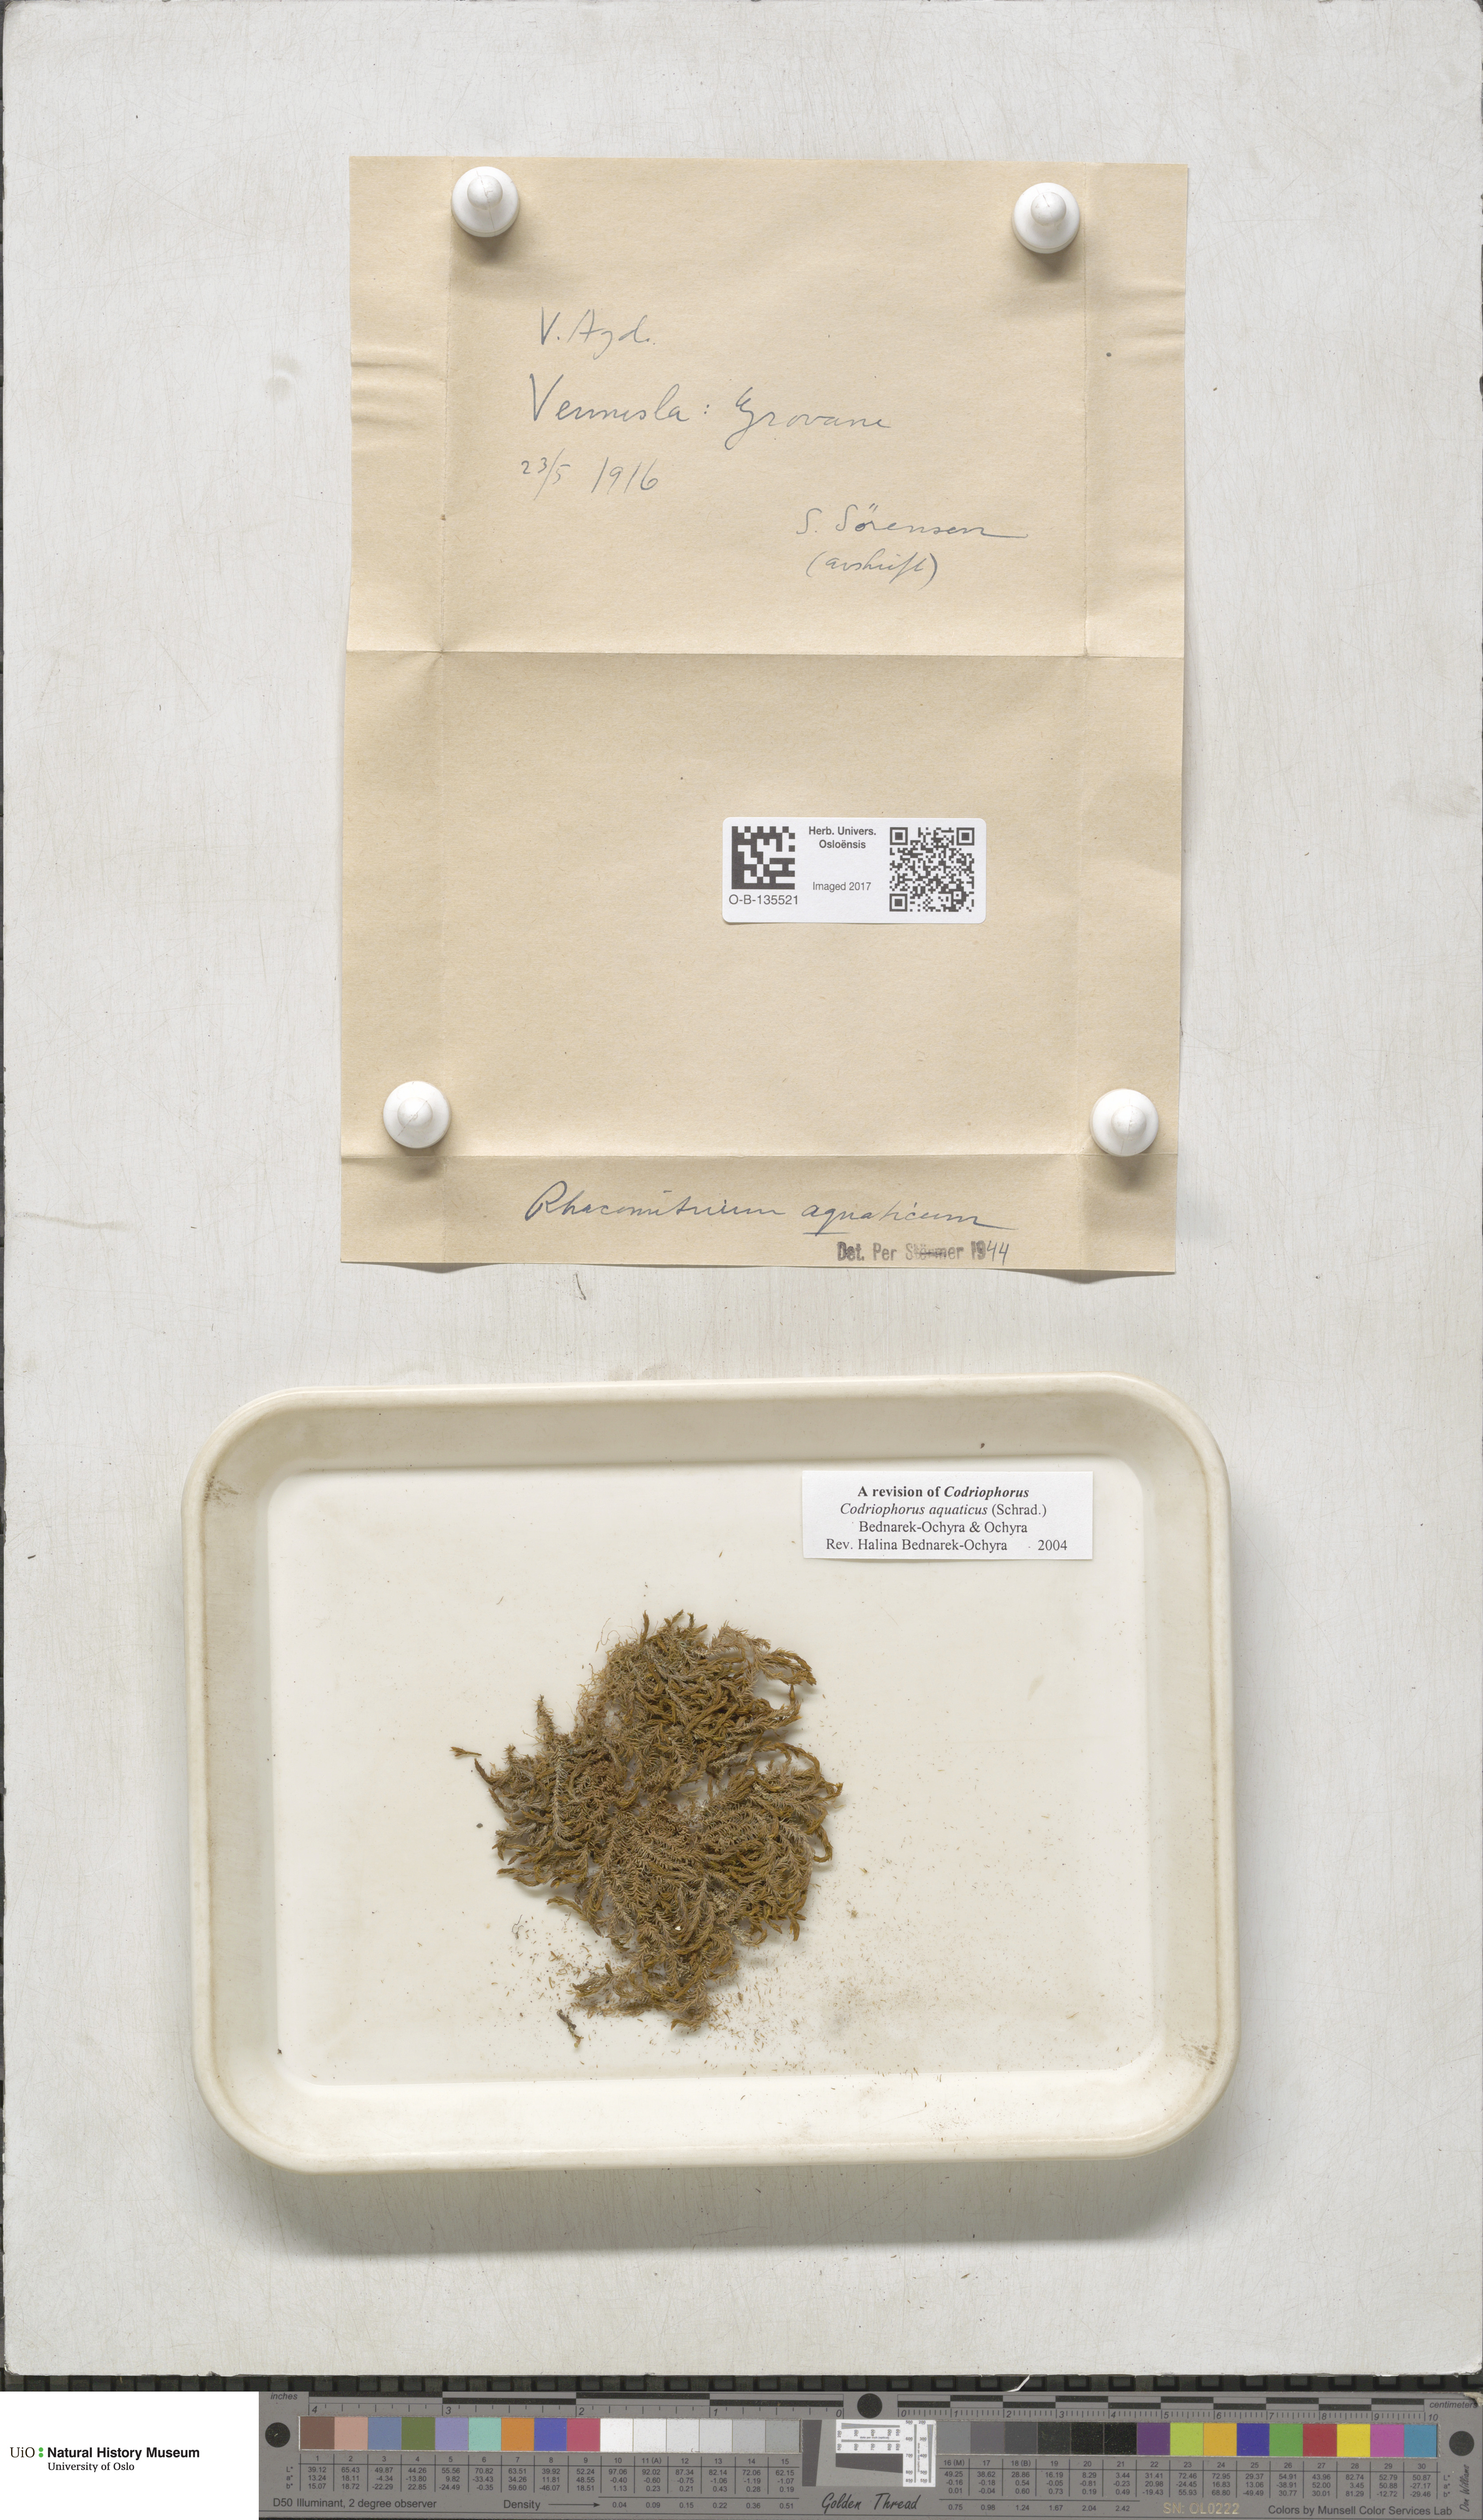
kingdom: Plantae
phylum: Bryophyta
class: Bryopsida
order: Grimmiales
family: Grimmiaceae
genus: Codriophorus
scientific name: Codriophorus aquaticus
